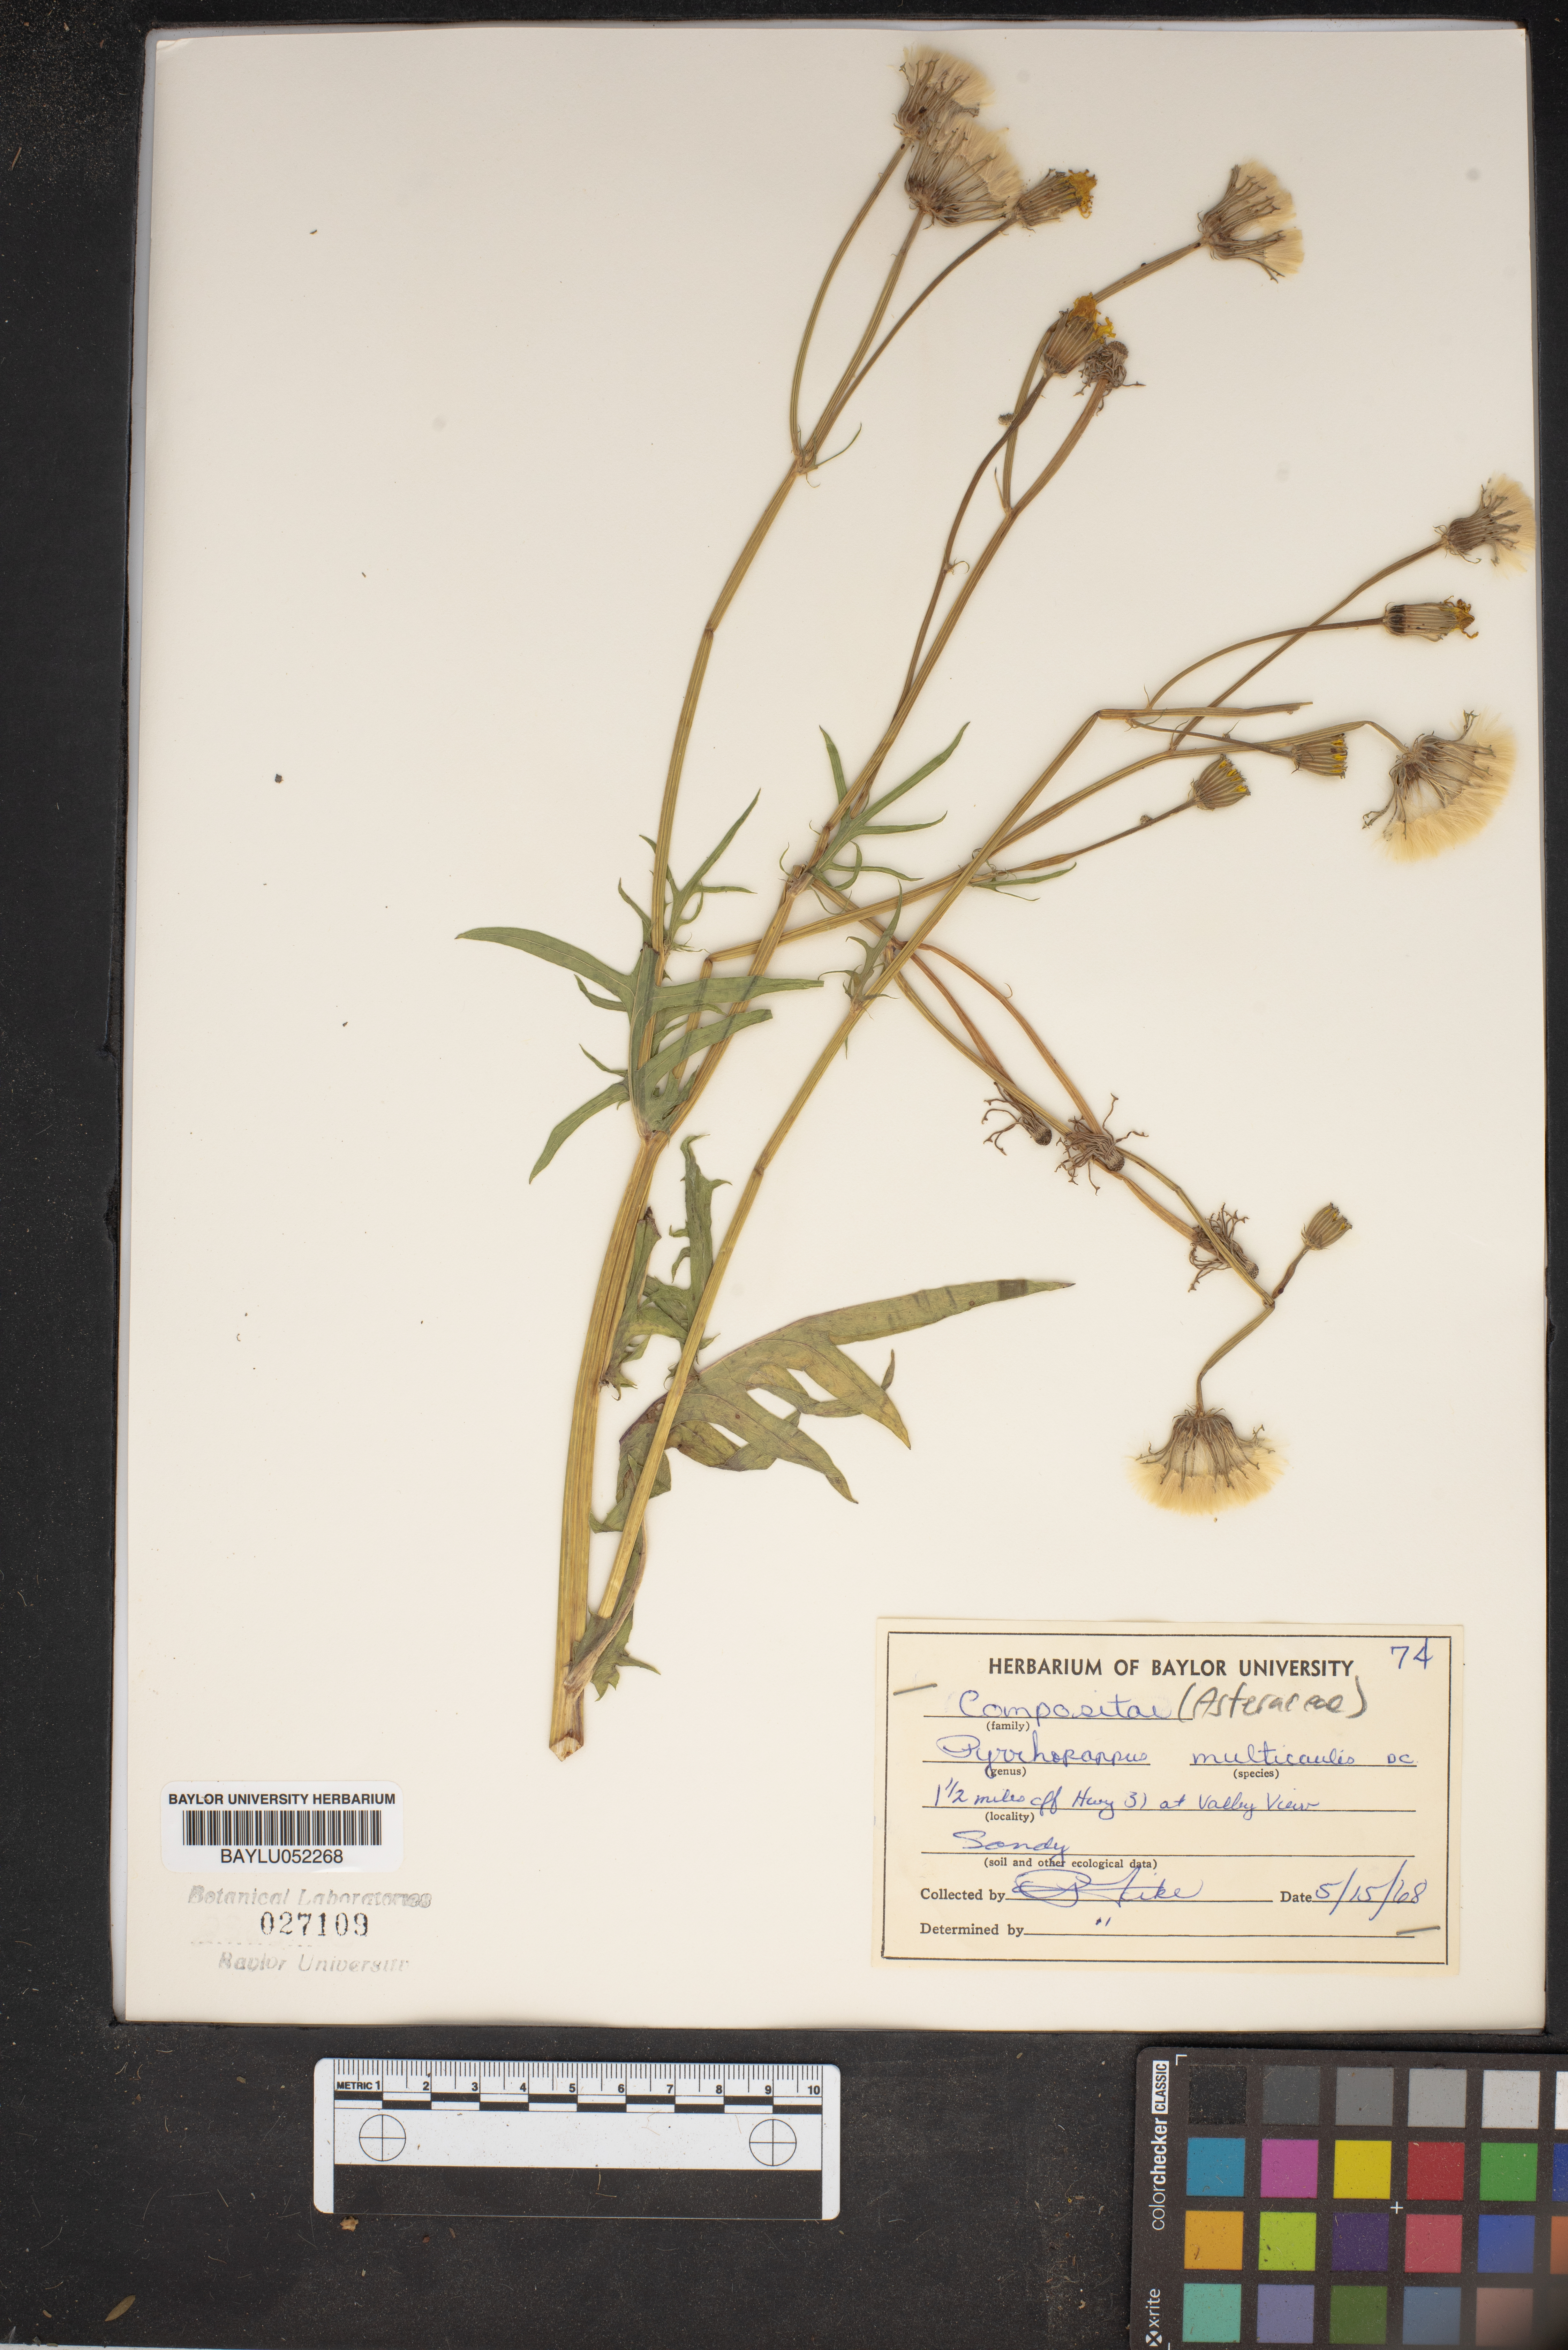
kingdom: Plantae
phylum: Tracheophyta
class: Magnoliopsida
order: Asterales
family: Asteraceae
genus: Pyrrhopappus
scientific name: Pyrrhopappus pauciflorus
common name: Texas false dandelion
